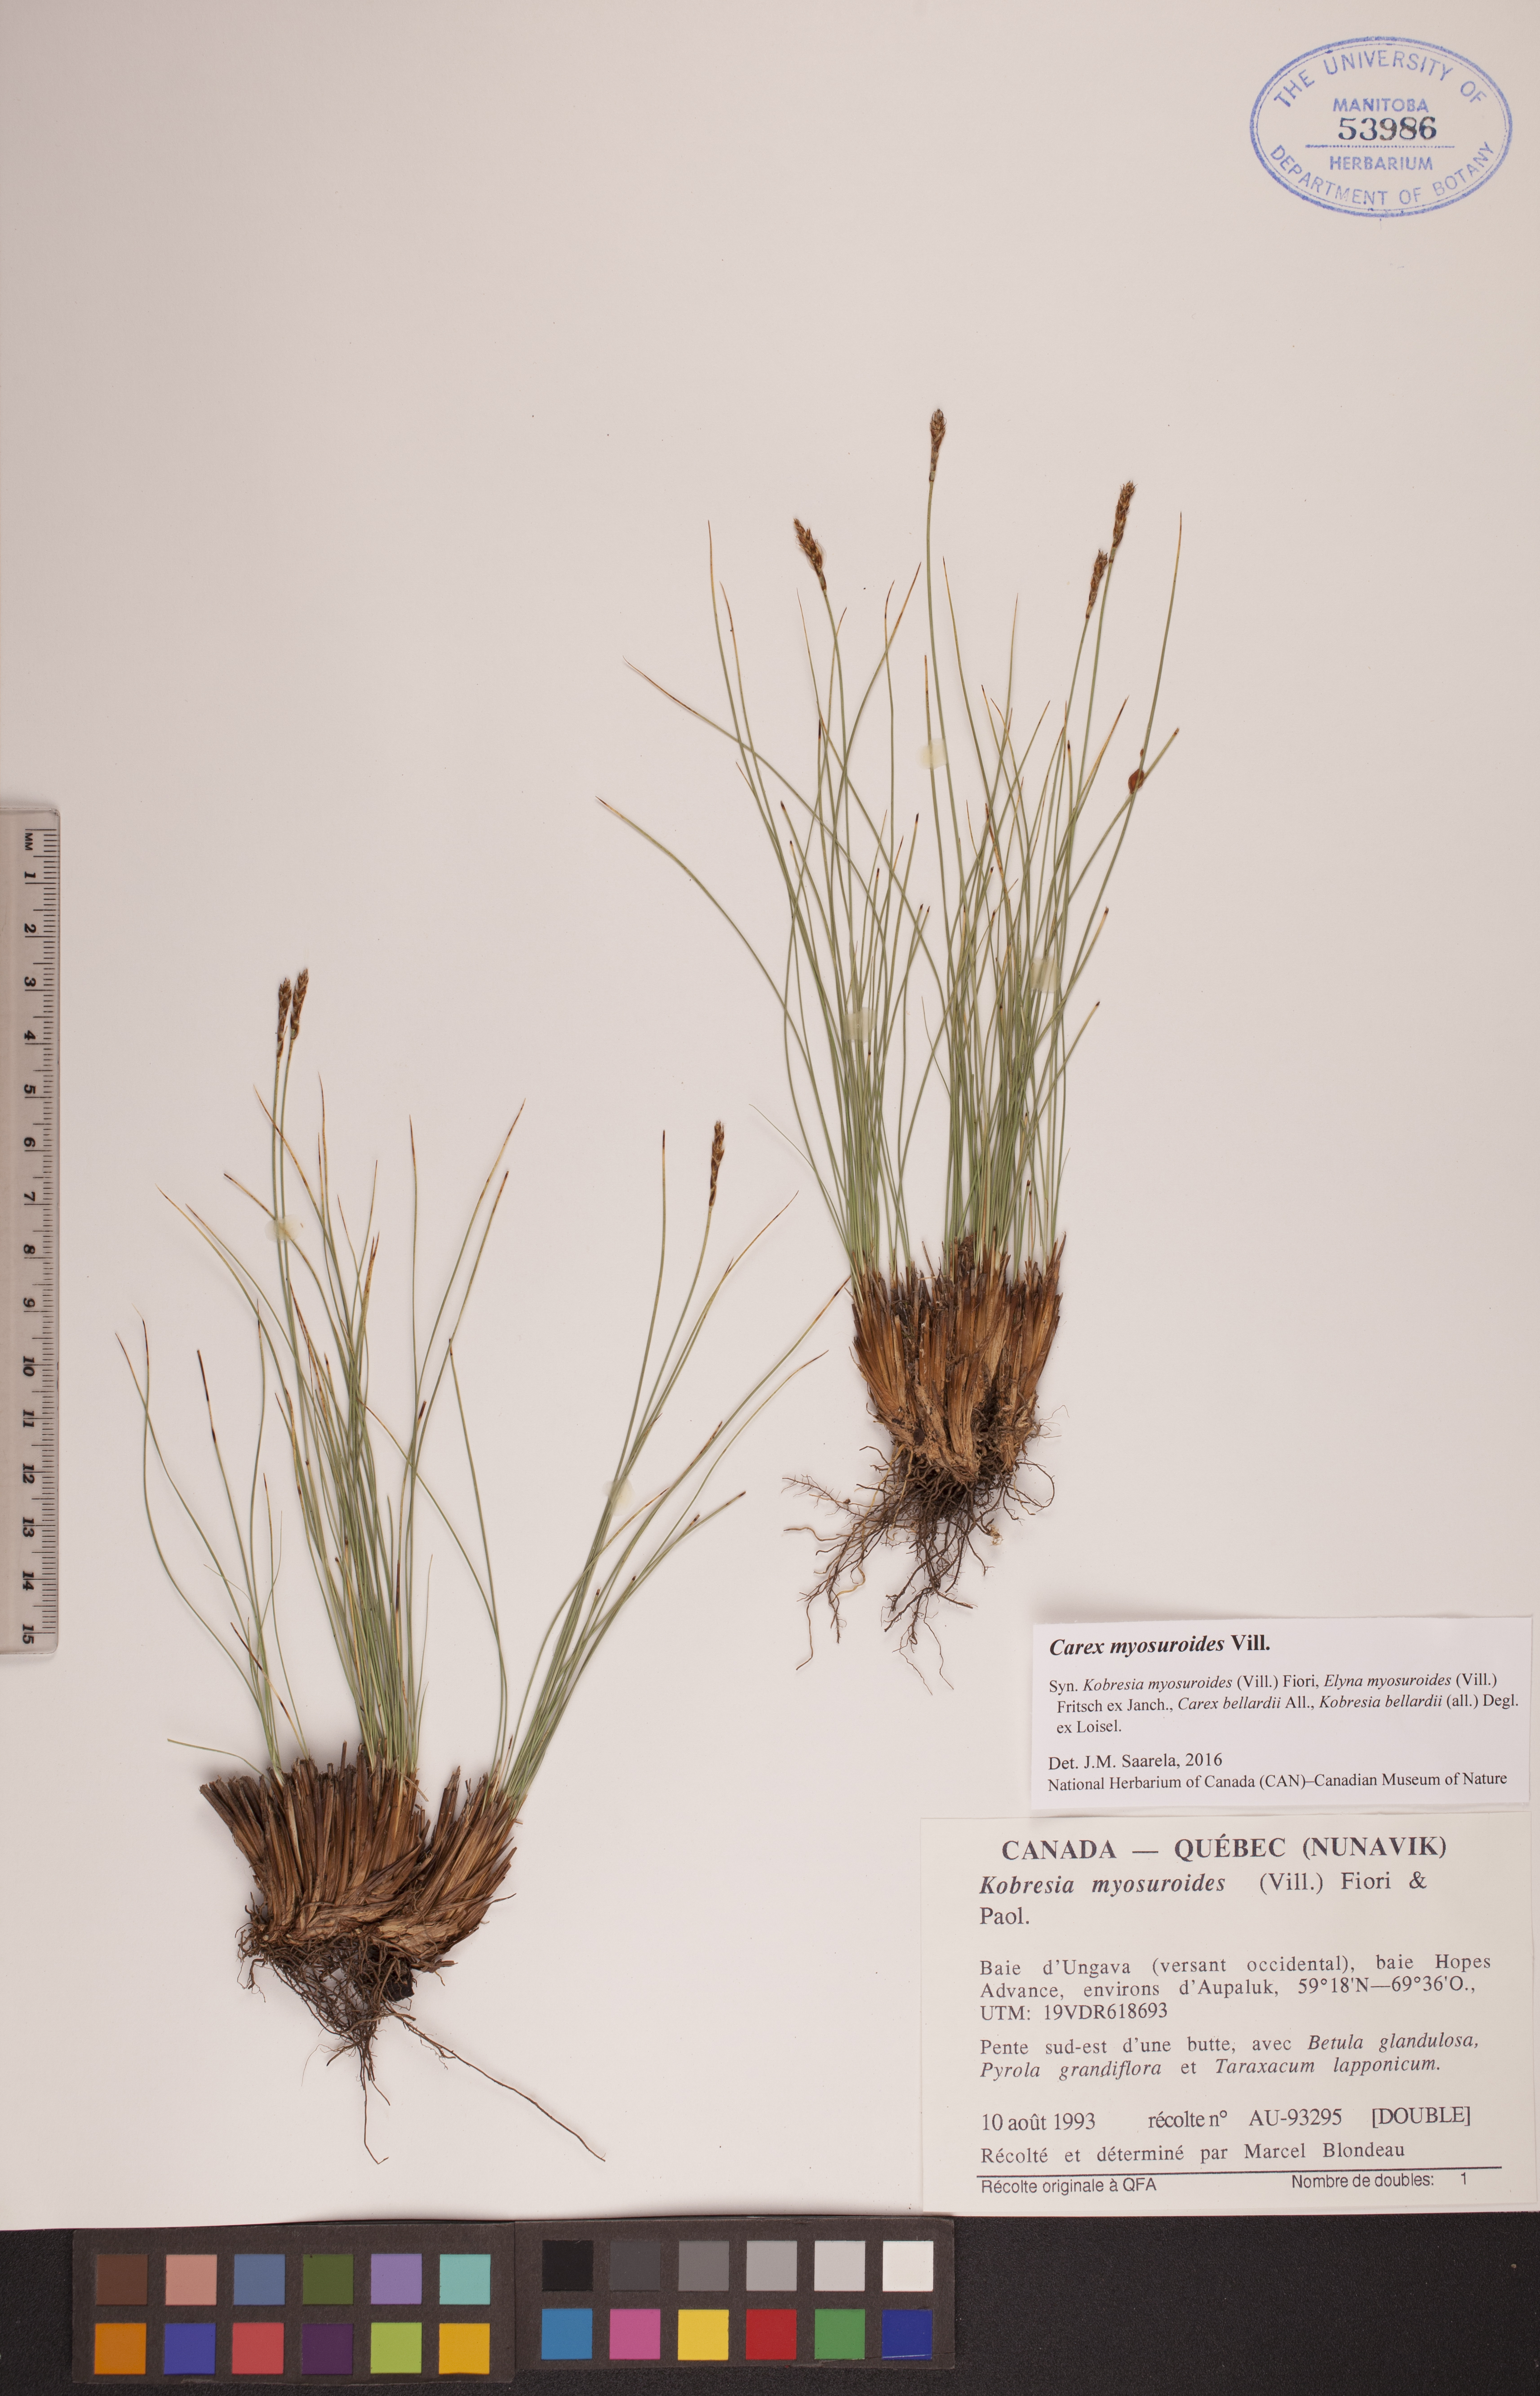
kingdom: Plantae
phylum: Tracheophyta
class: Liliopsida
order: Poales
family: Cyperaceae
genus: Carex
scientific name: Carex myosuroides
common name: Bellard's bog sedge
